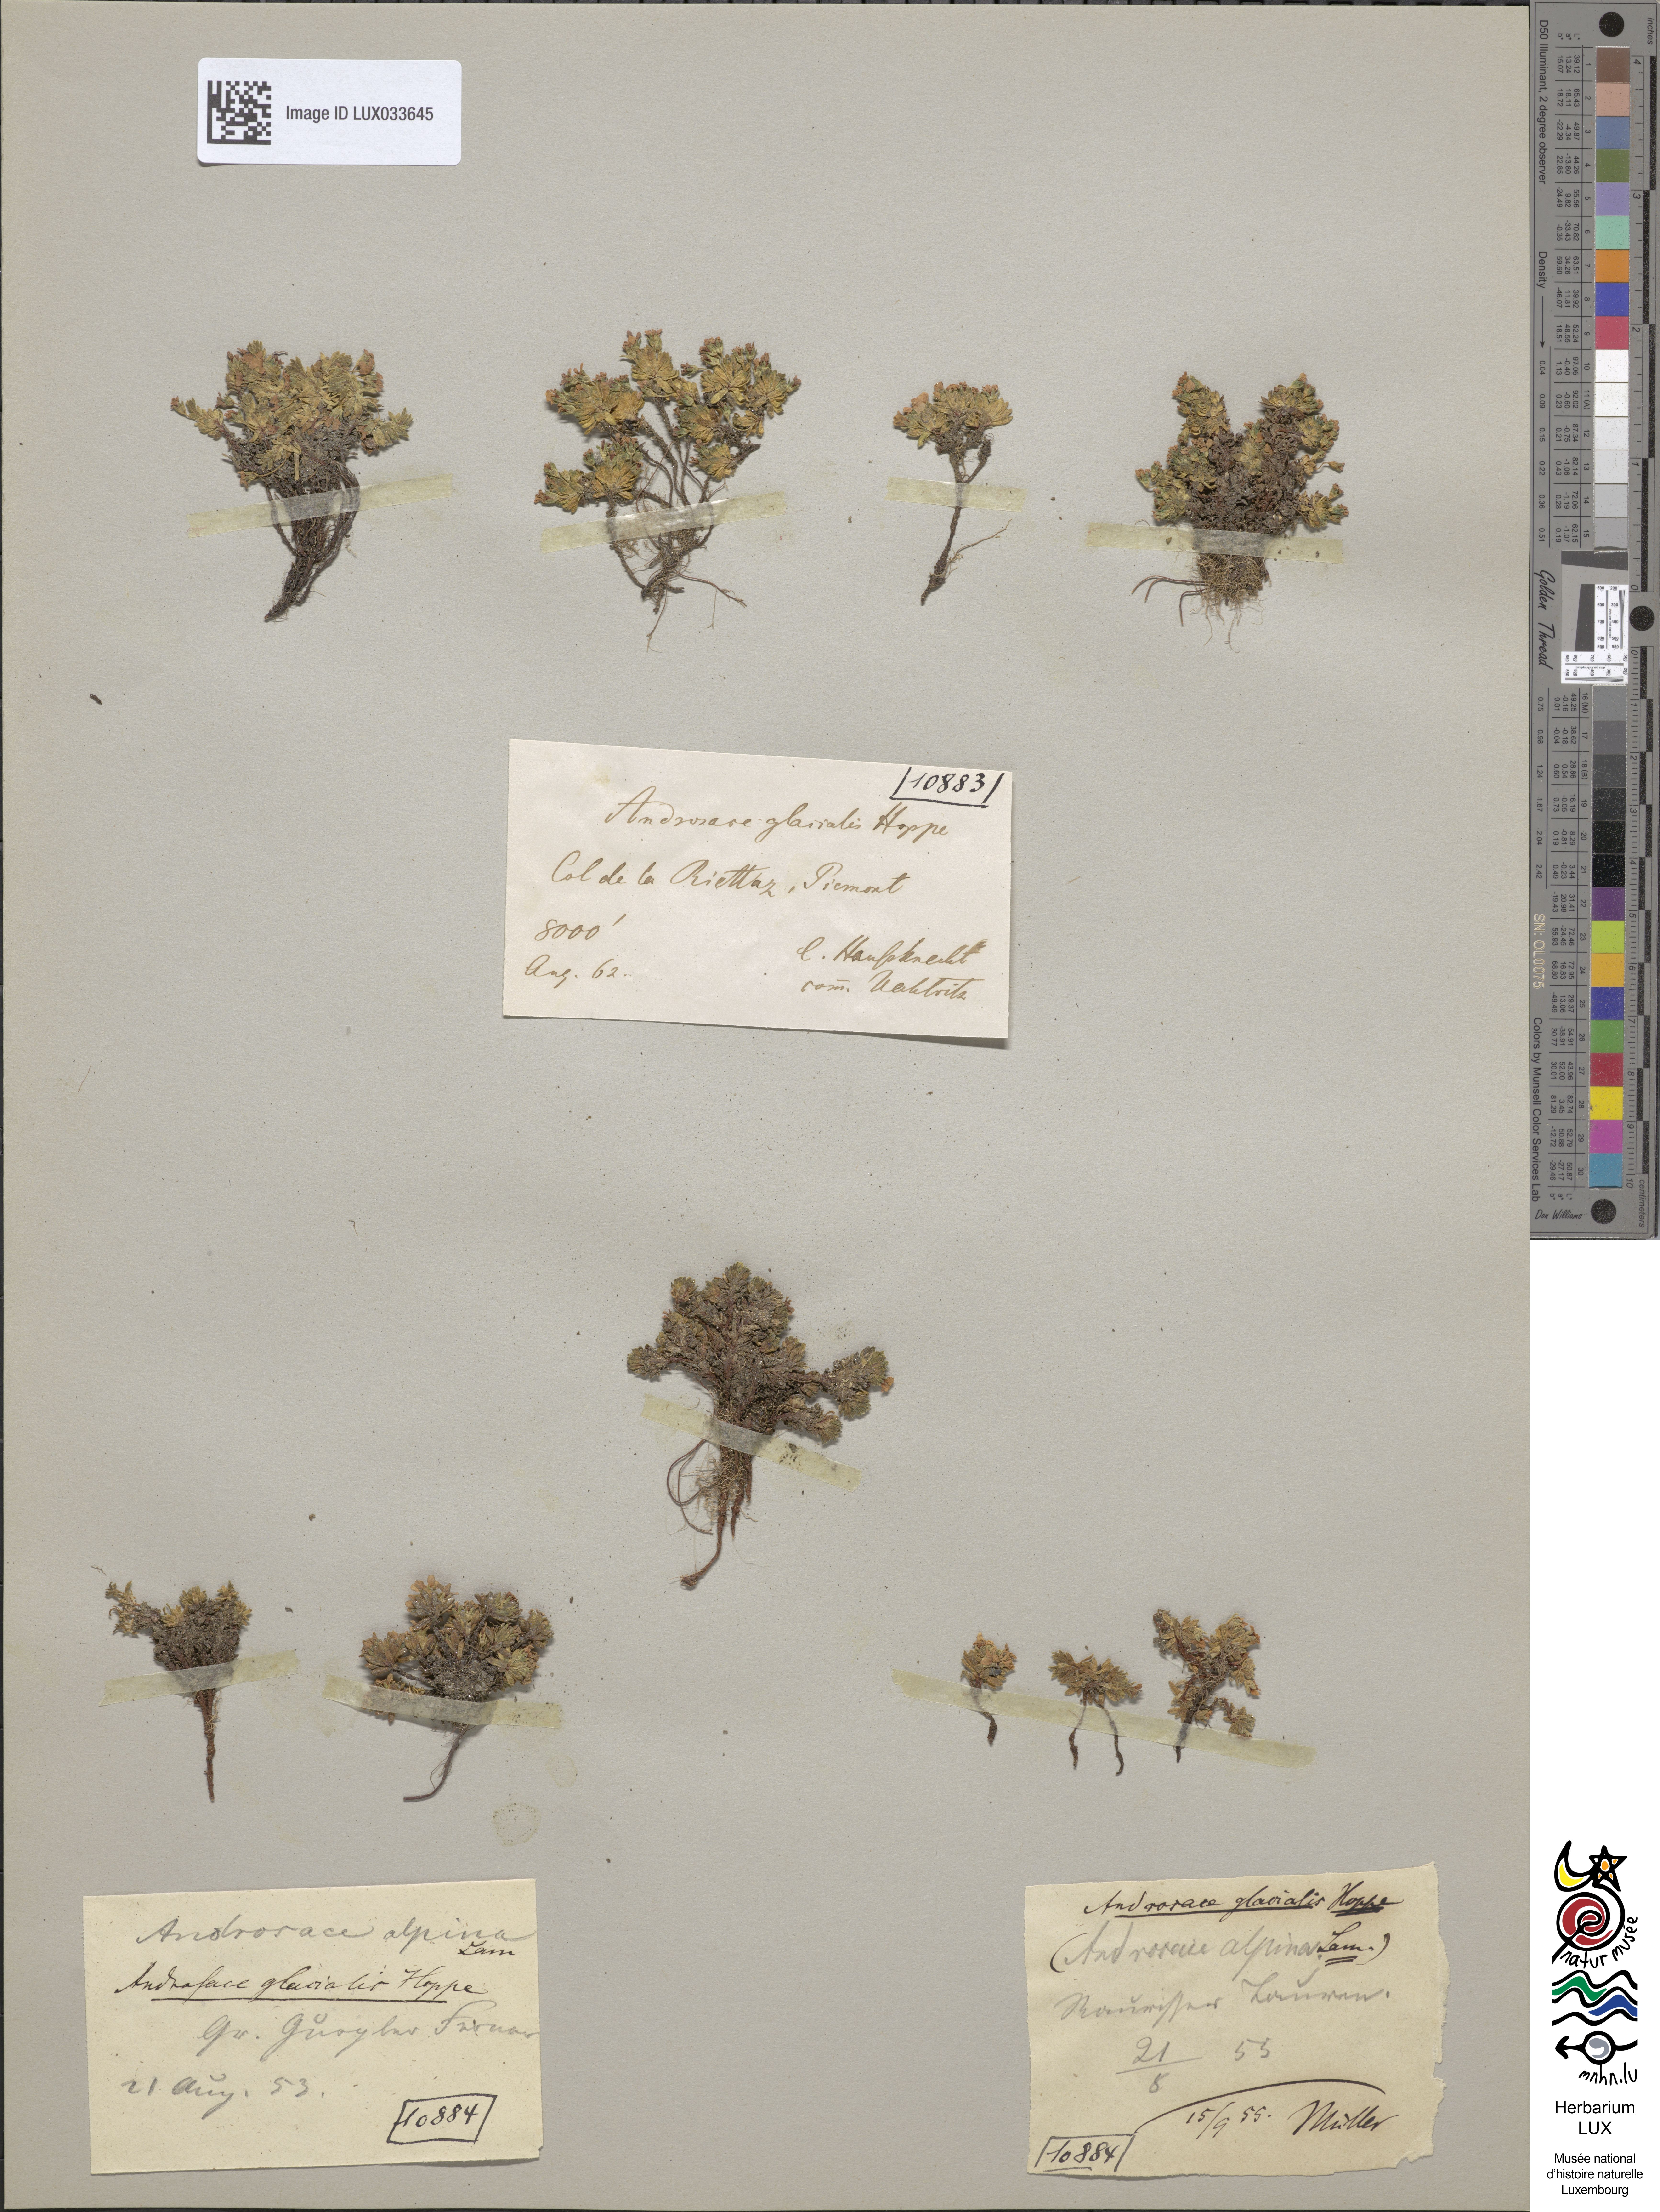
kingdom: Plantae
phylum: Tracheophyta
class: Magnoliopsida
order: Ericales
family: Primulaceae
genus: Androsace
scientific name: Androsace alpina
